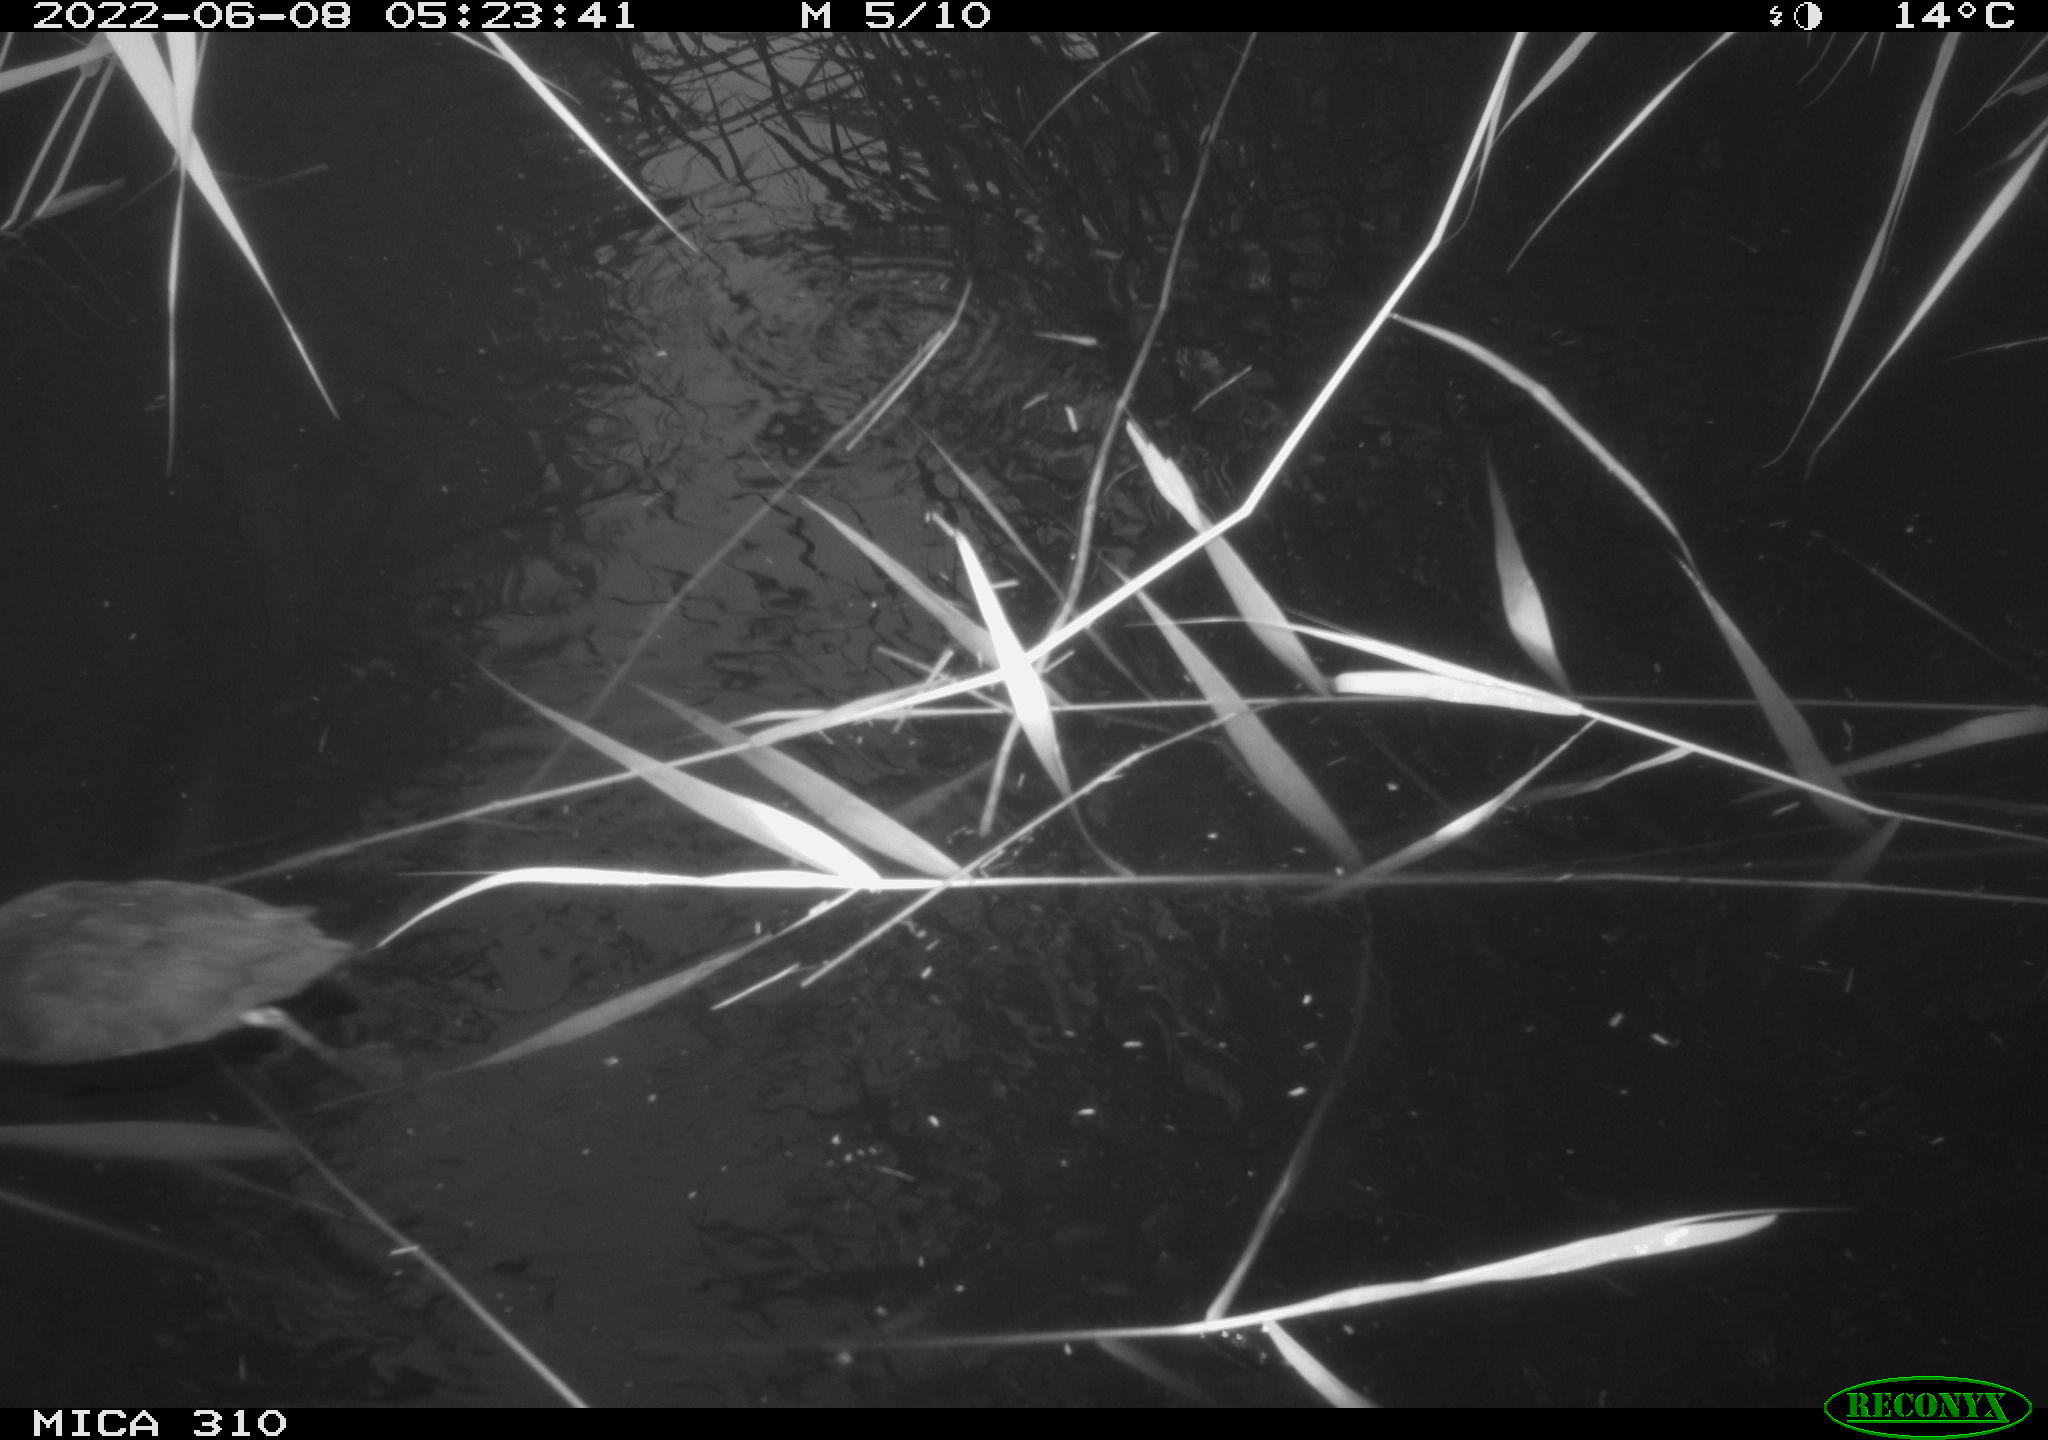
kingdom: Animalia
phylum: Chordata
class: Aves
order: Gruiformes
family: Rallidae
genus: Fulica
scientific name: Fulica atra
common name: Eurasian coot
